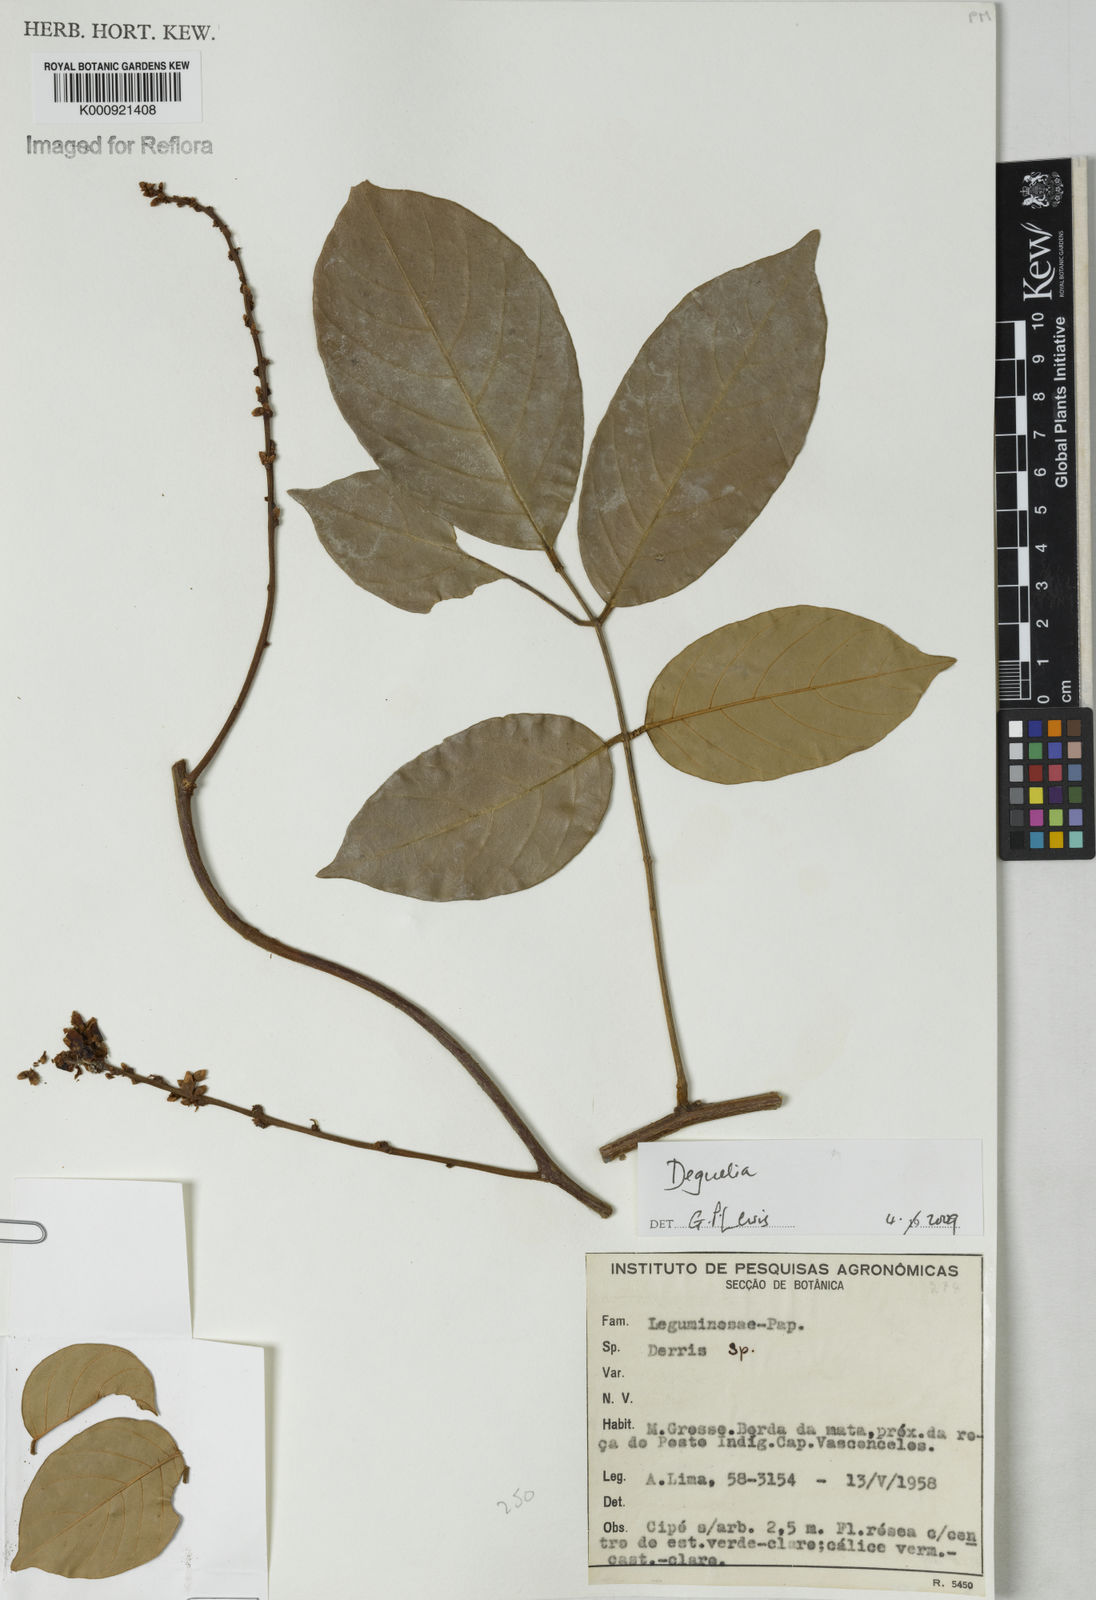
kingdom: Plantae
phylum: Tracheophyta
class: Magnoliopsida
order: Fabales
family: Fabaceae
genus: Deguelia
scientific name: Deguelia
